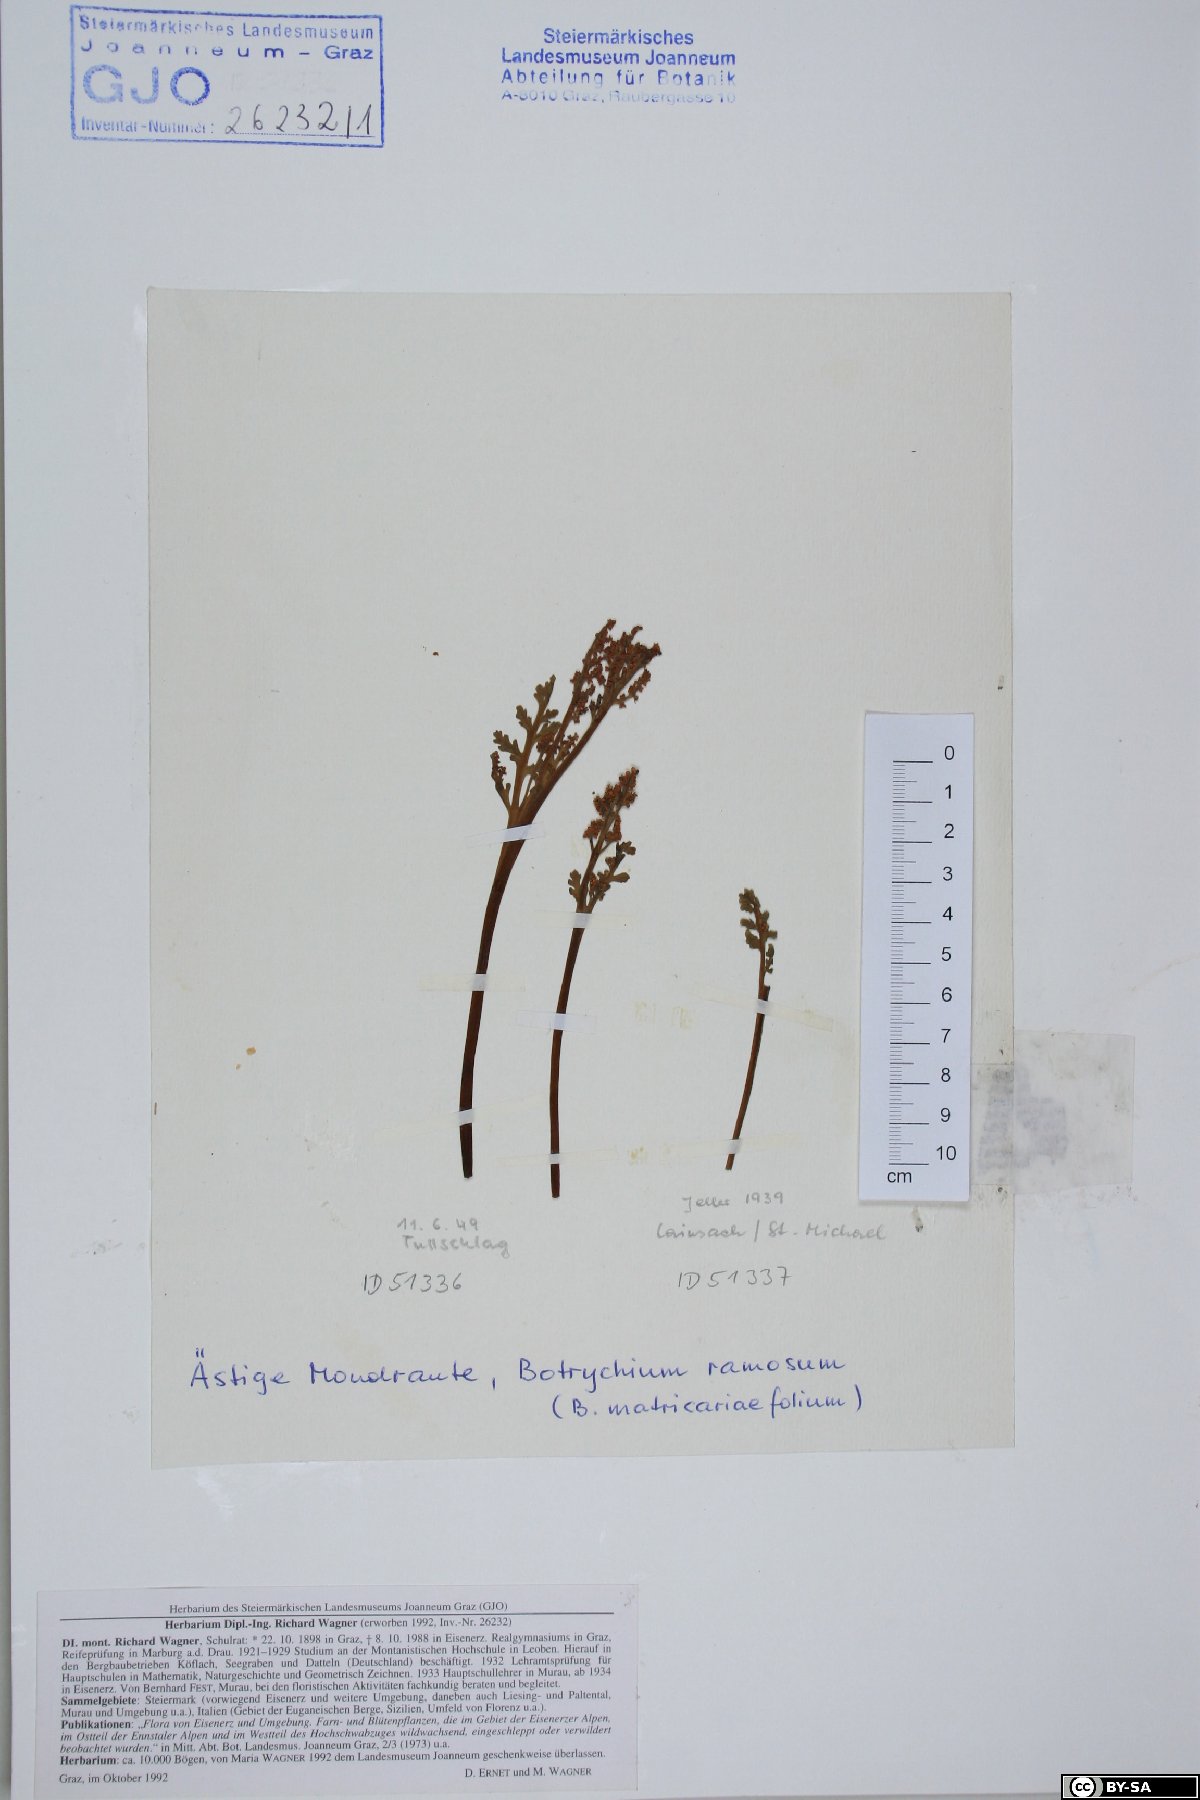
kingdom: Plantae
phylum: Tracheophyta
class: Polypodiopsida
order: Ophioglossales
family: Ophioglossaceae
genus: Botrychium
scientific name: Botrychium matricariifolium
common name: Branched moonwort
